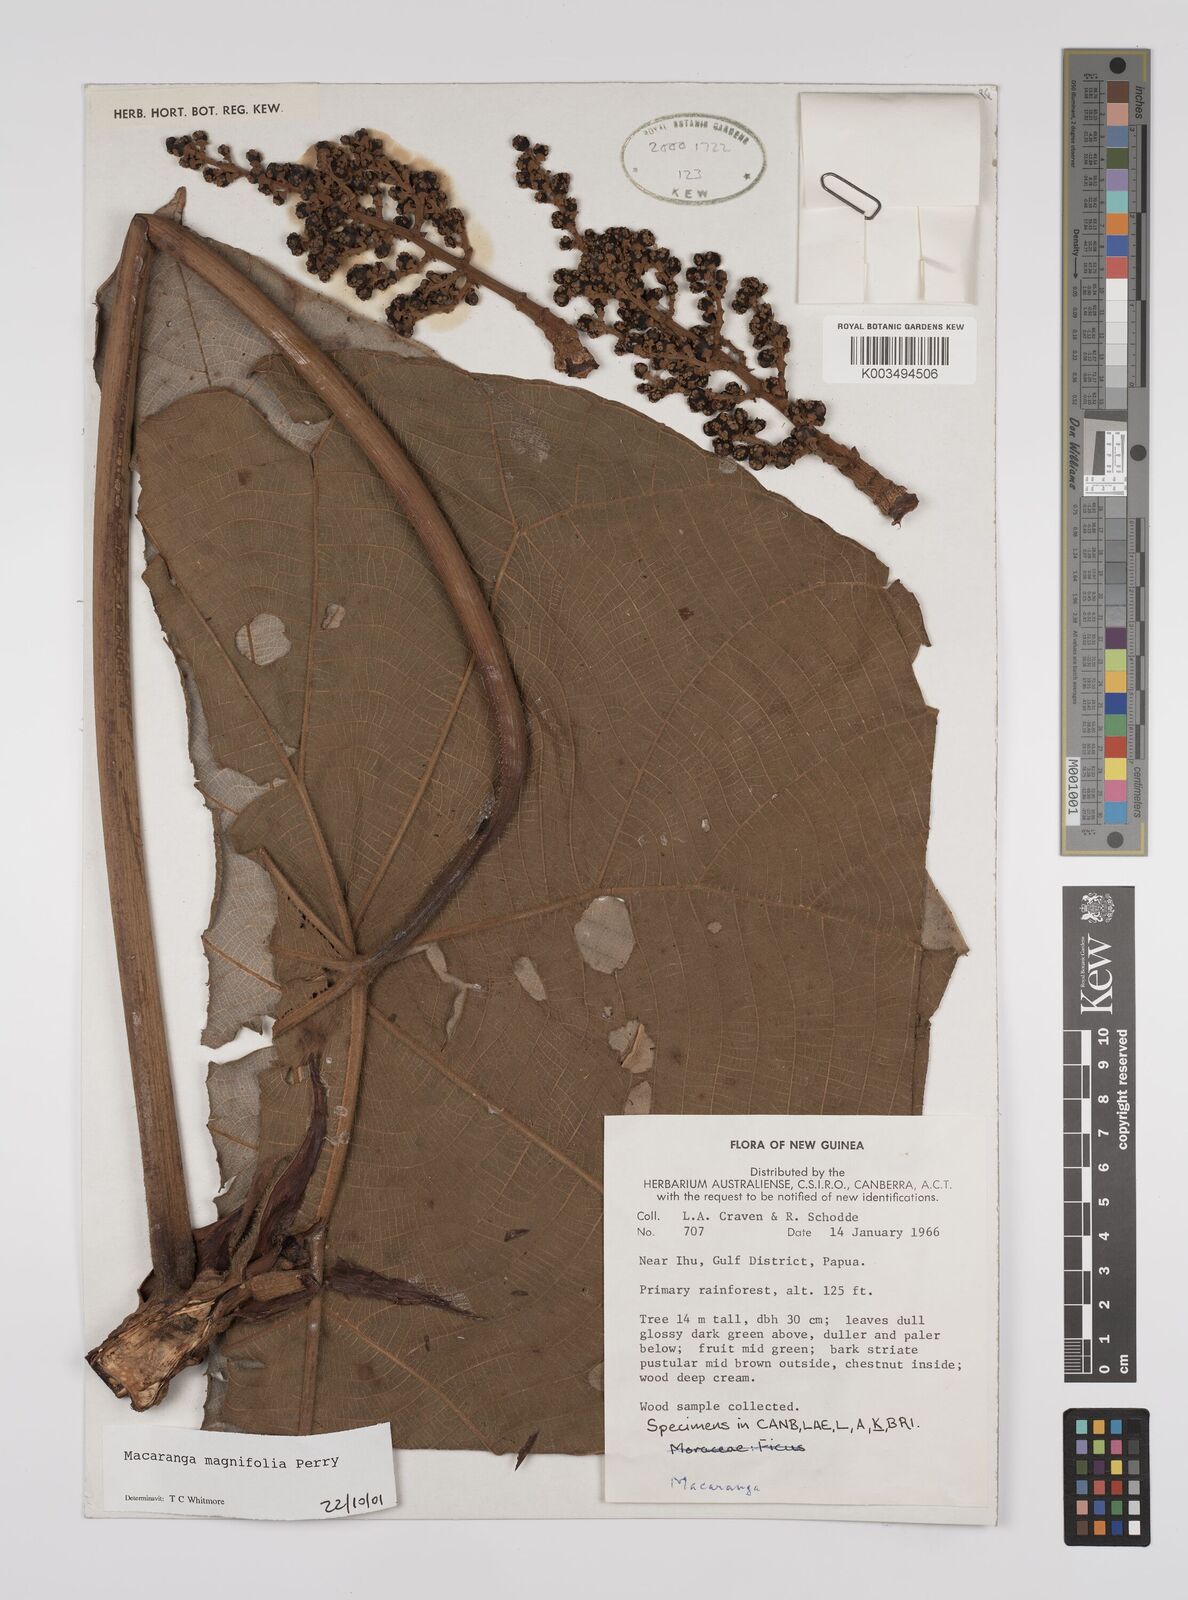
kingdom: Plantae
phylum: Tracheophyta
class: Magnoliopsida
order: Malpighiales
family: Euphorbiaceae
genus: Macaranga
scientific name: Macaranga magnifolia
